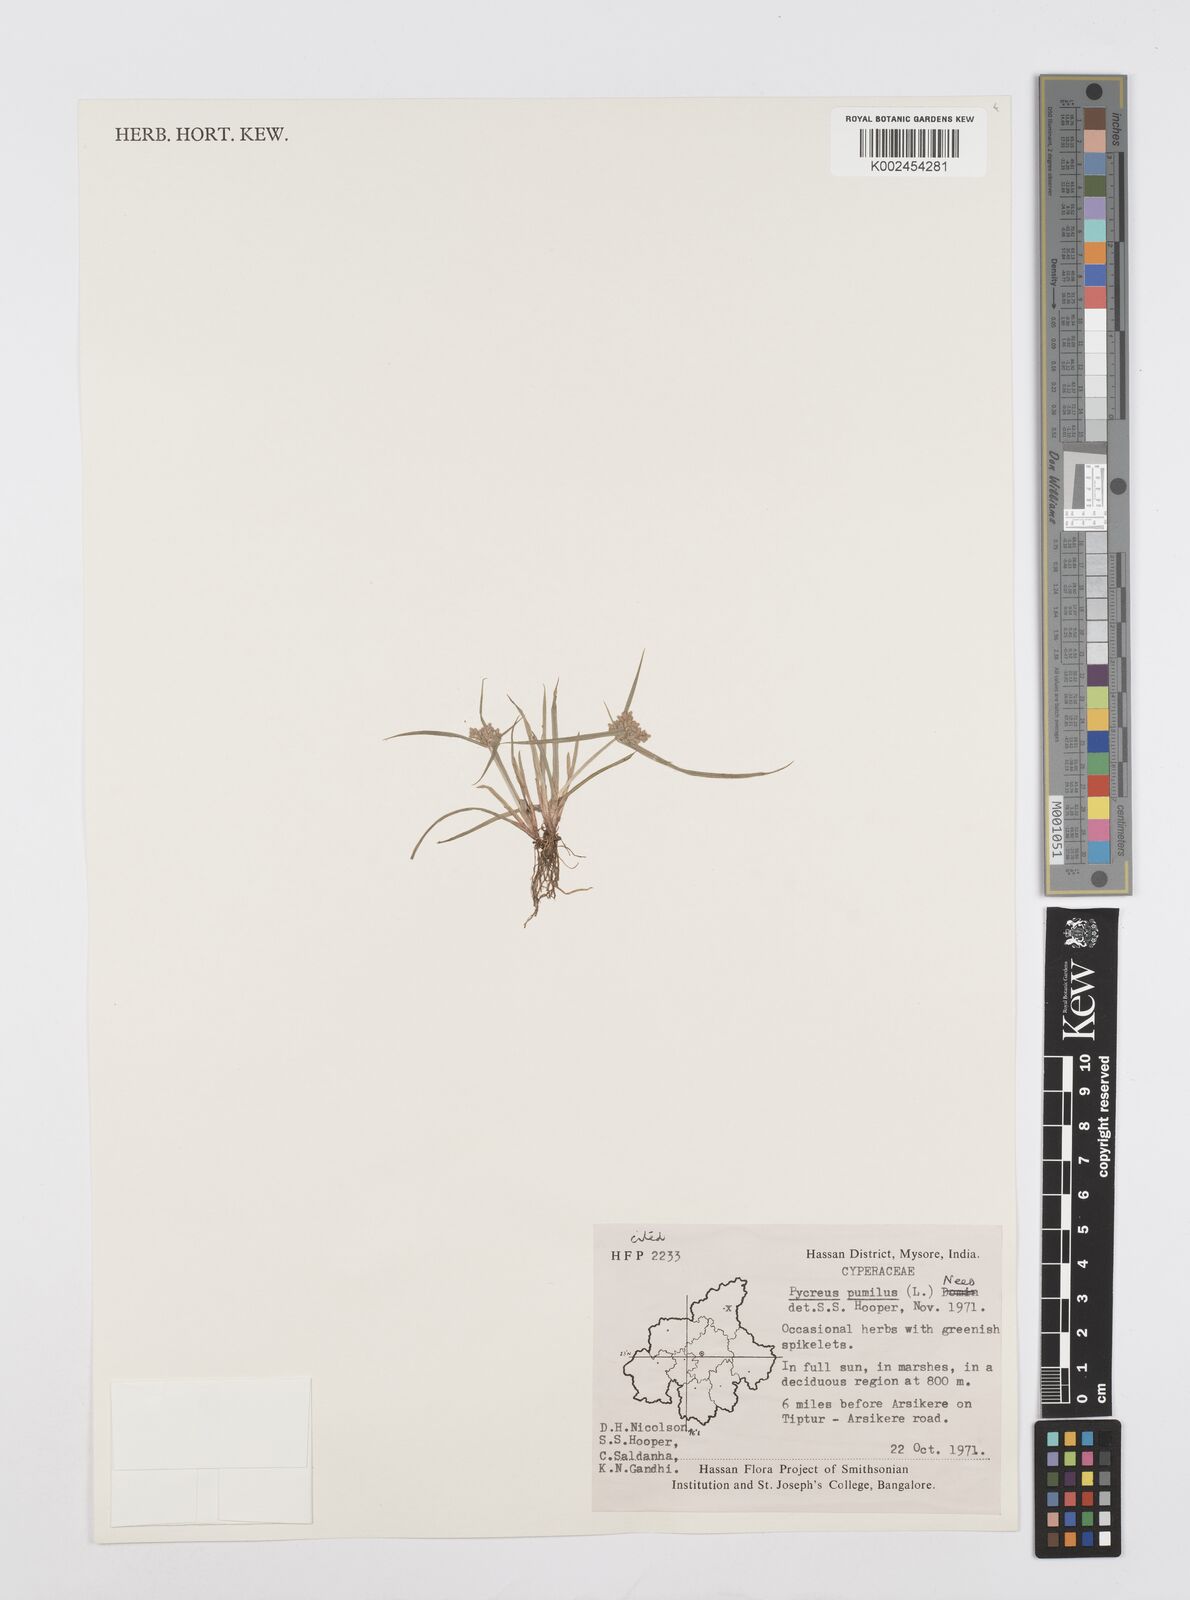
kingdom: Plantae
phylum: Tracheophyta
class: Liliopsida
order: Poales
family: Cyperaceae
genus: Cyperus
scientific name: Cyperus pumilus
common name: Low flatsedge
